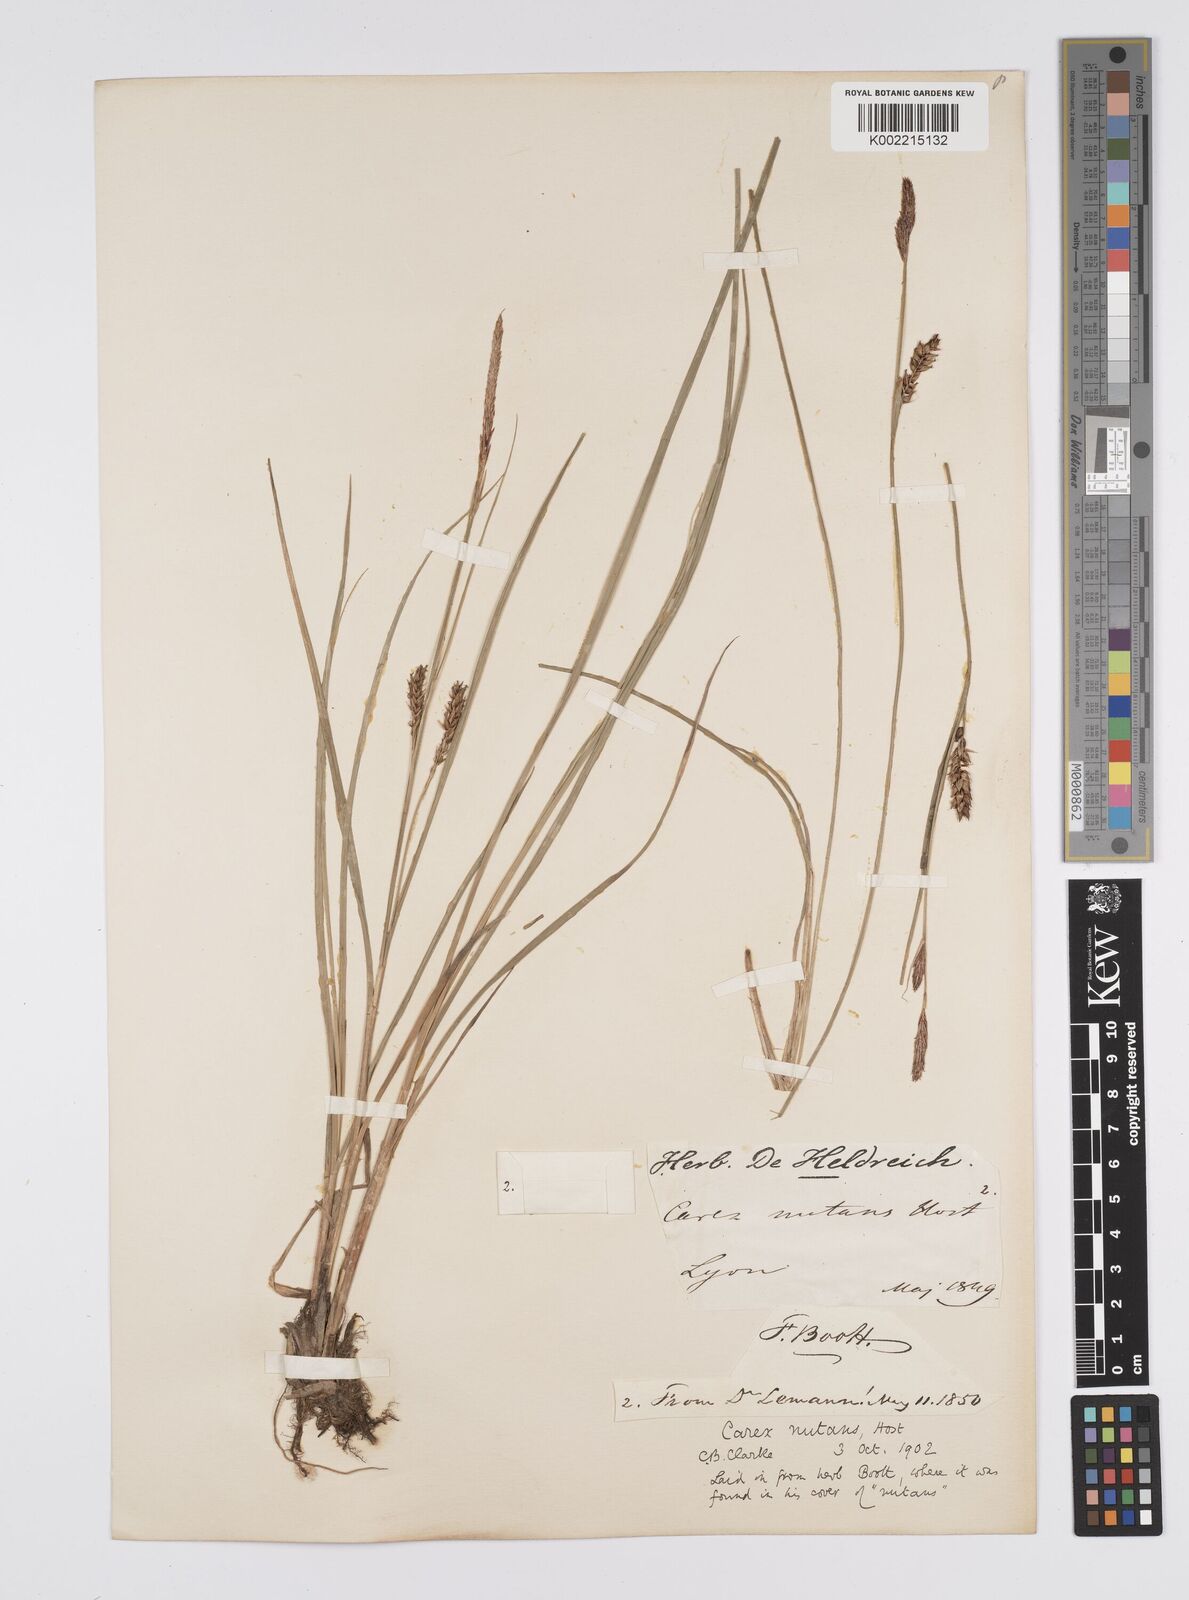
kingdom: Plantae
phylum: Tracheophyta
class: Liliopsida
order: Poales
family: Cyperaceae
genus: Carex
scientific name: Carex melanostachya
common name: Black-spiked sedge
